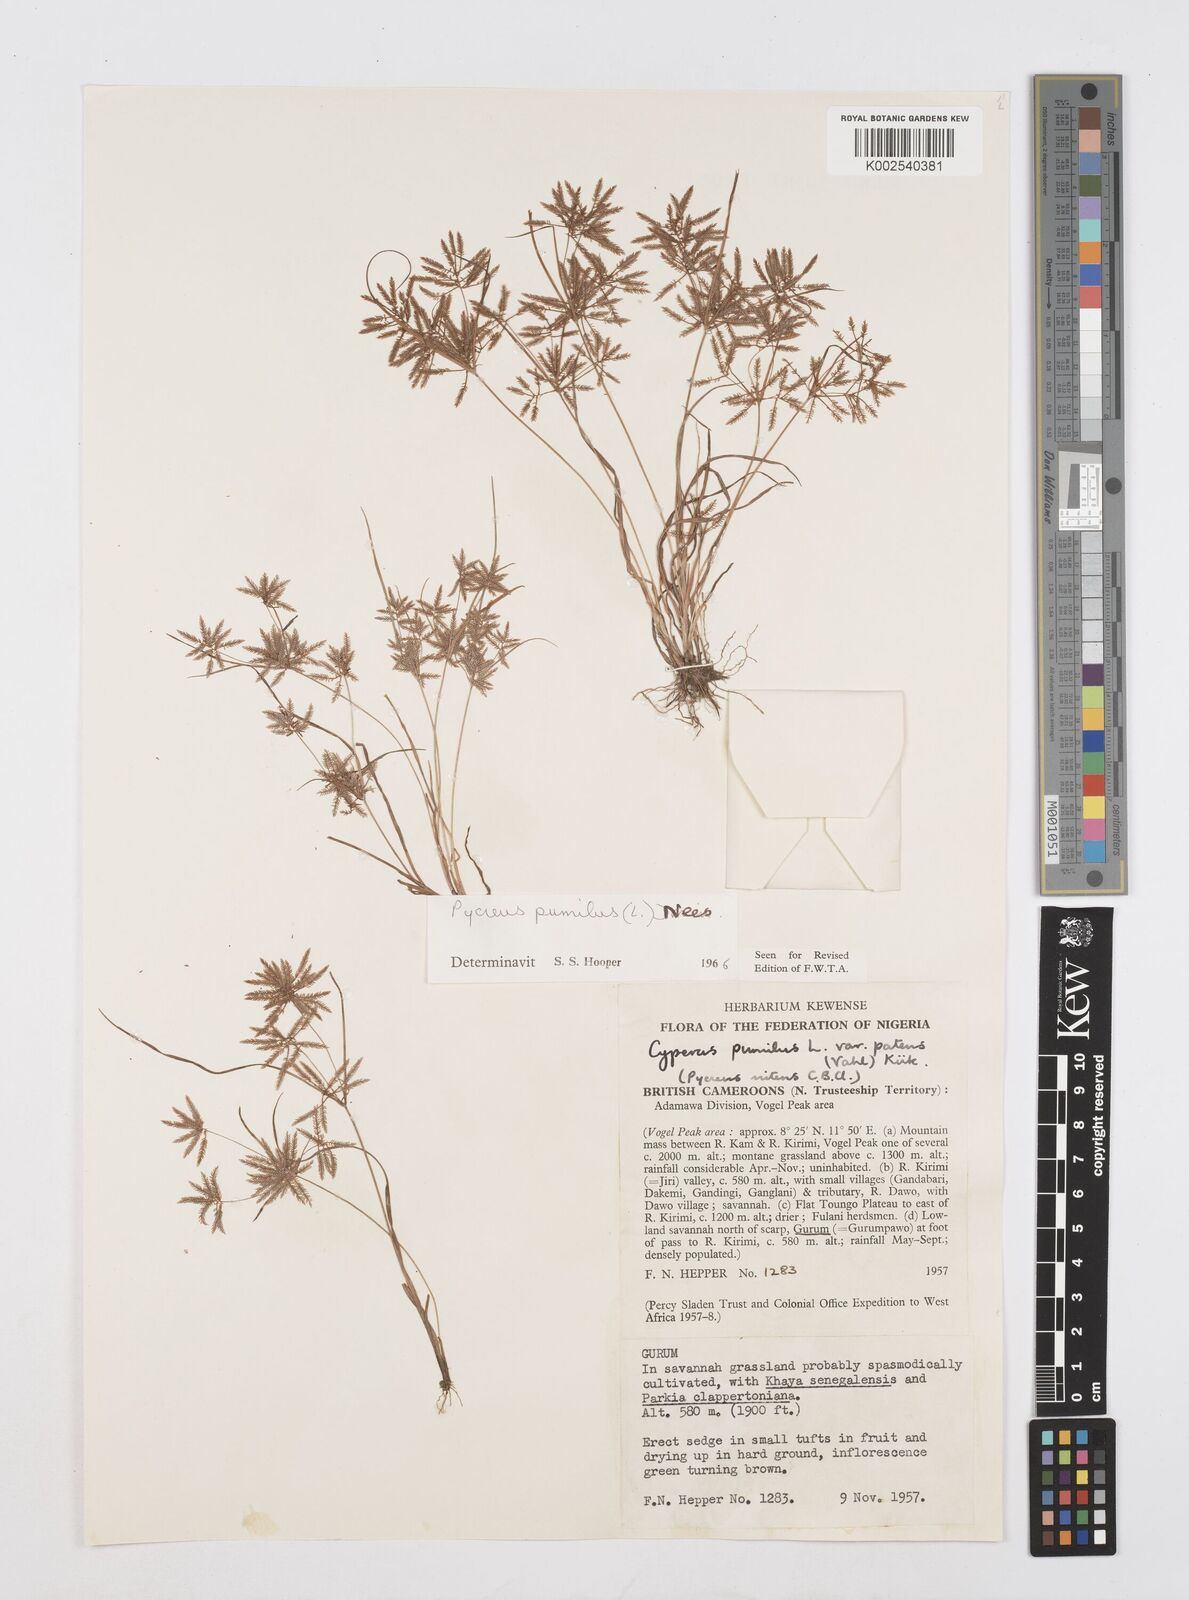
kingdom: Plantae
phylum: Tracheophyta
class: Liliopsida
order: Poales
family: Cyperaceae
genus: Cyperus
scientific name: Cyperus pumilus
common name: Low flatsedge
